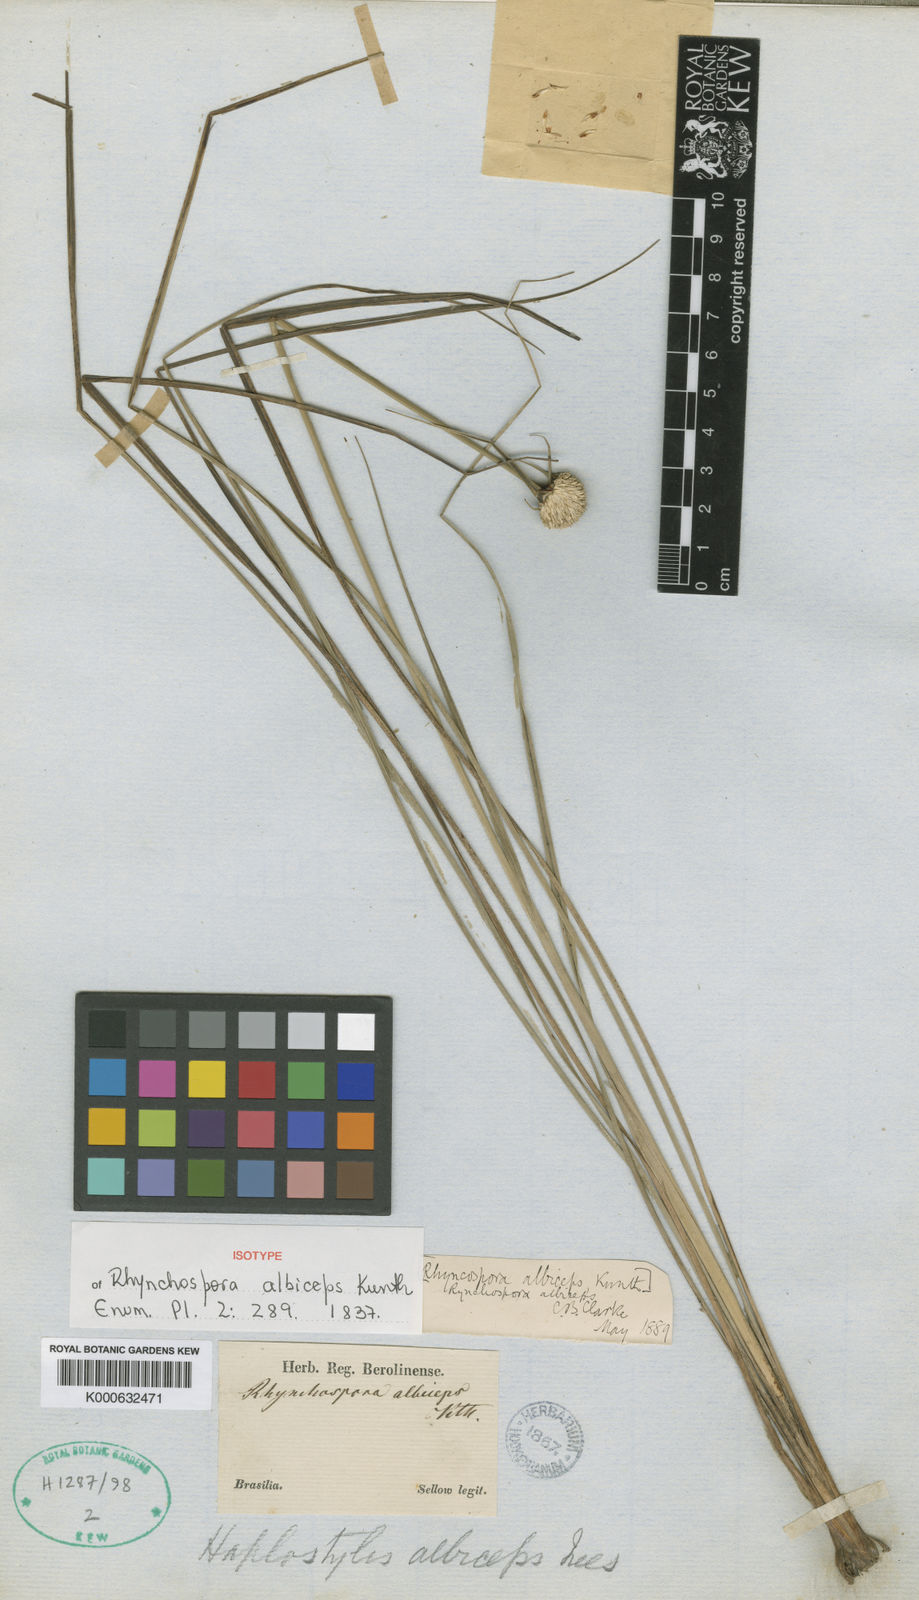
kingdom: Plantae
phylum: Tracheophyta
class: Liliopsida
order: Poales
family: Cyperaceae
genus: Rhynchospora
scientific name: Rhynchospora albiceps
